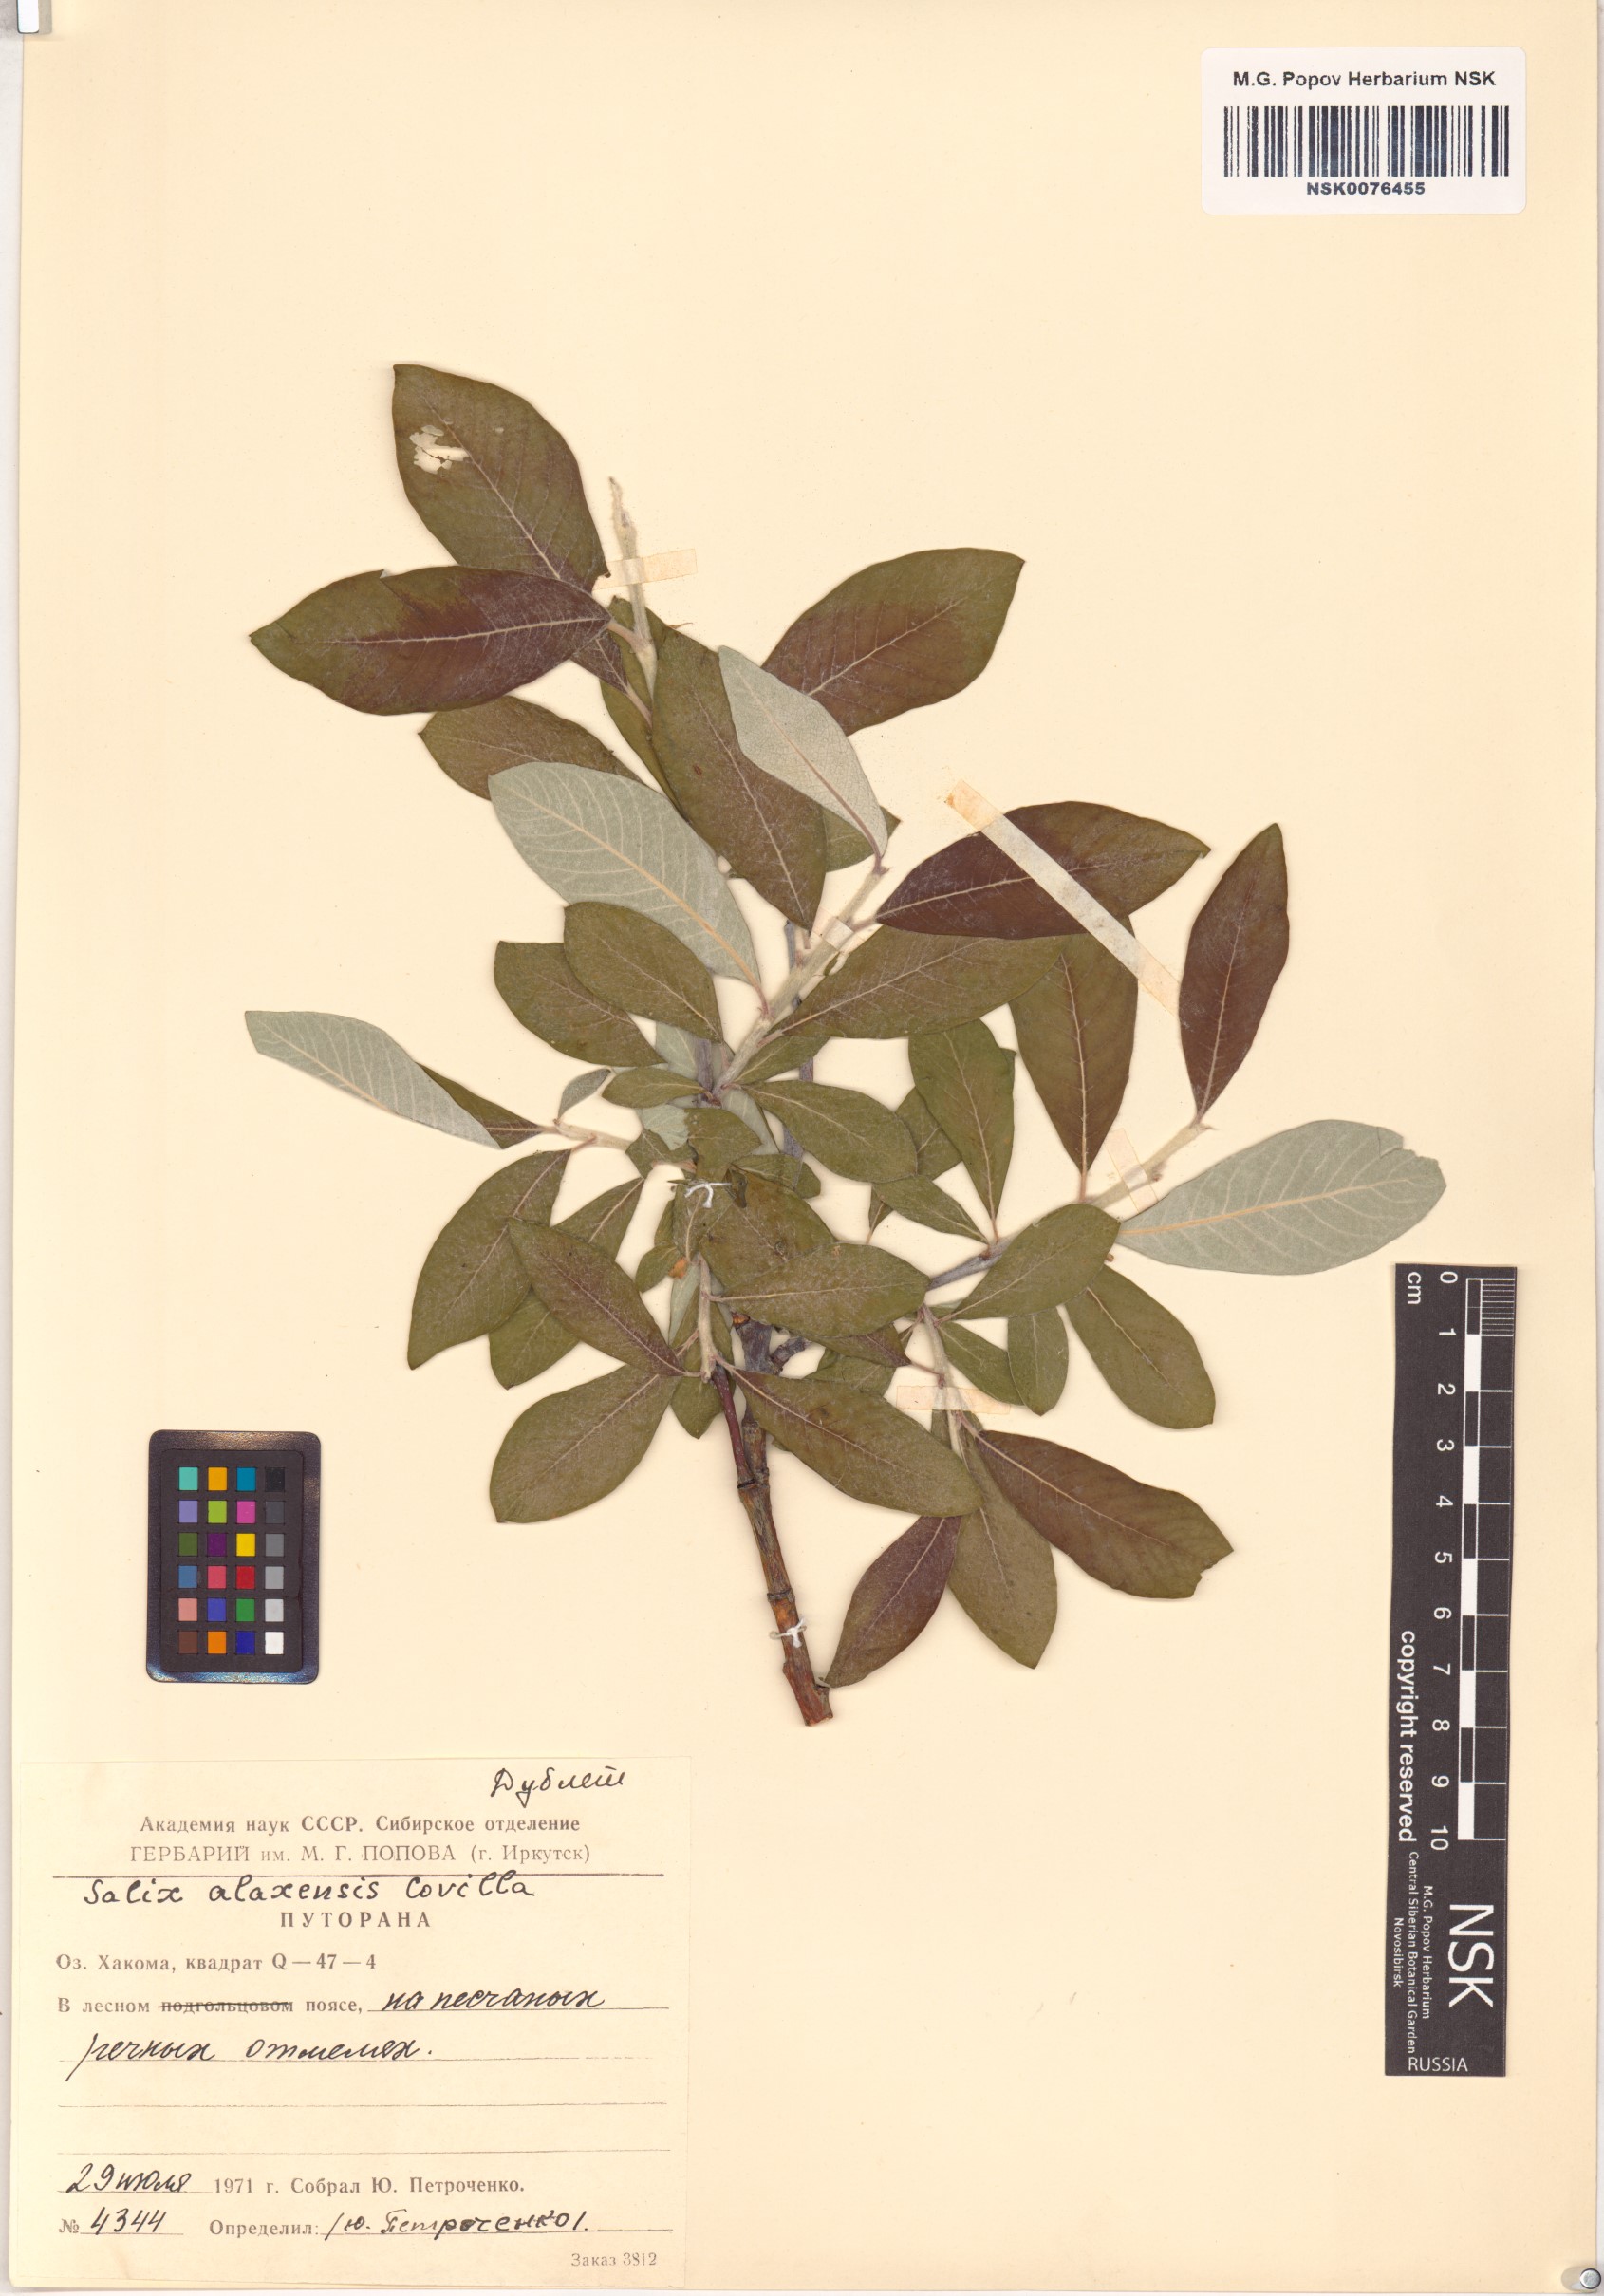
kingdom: Plantae
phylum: Tracheophyta
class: Magnoliopsida
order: Malpighiales
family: Salicaceae
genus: Salix
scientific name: Salix alaxensis
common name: Feltleaf willow
